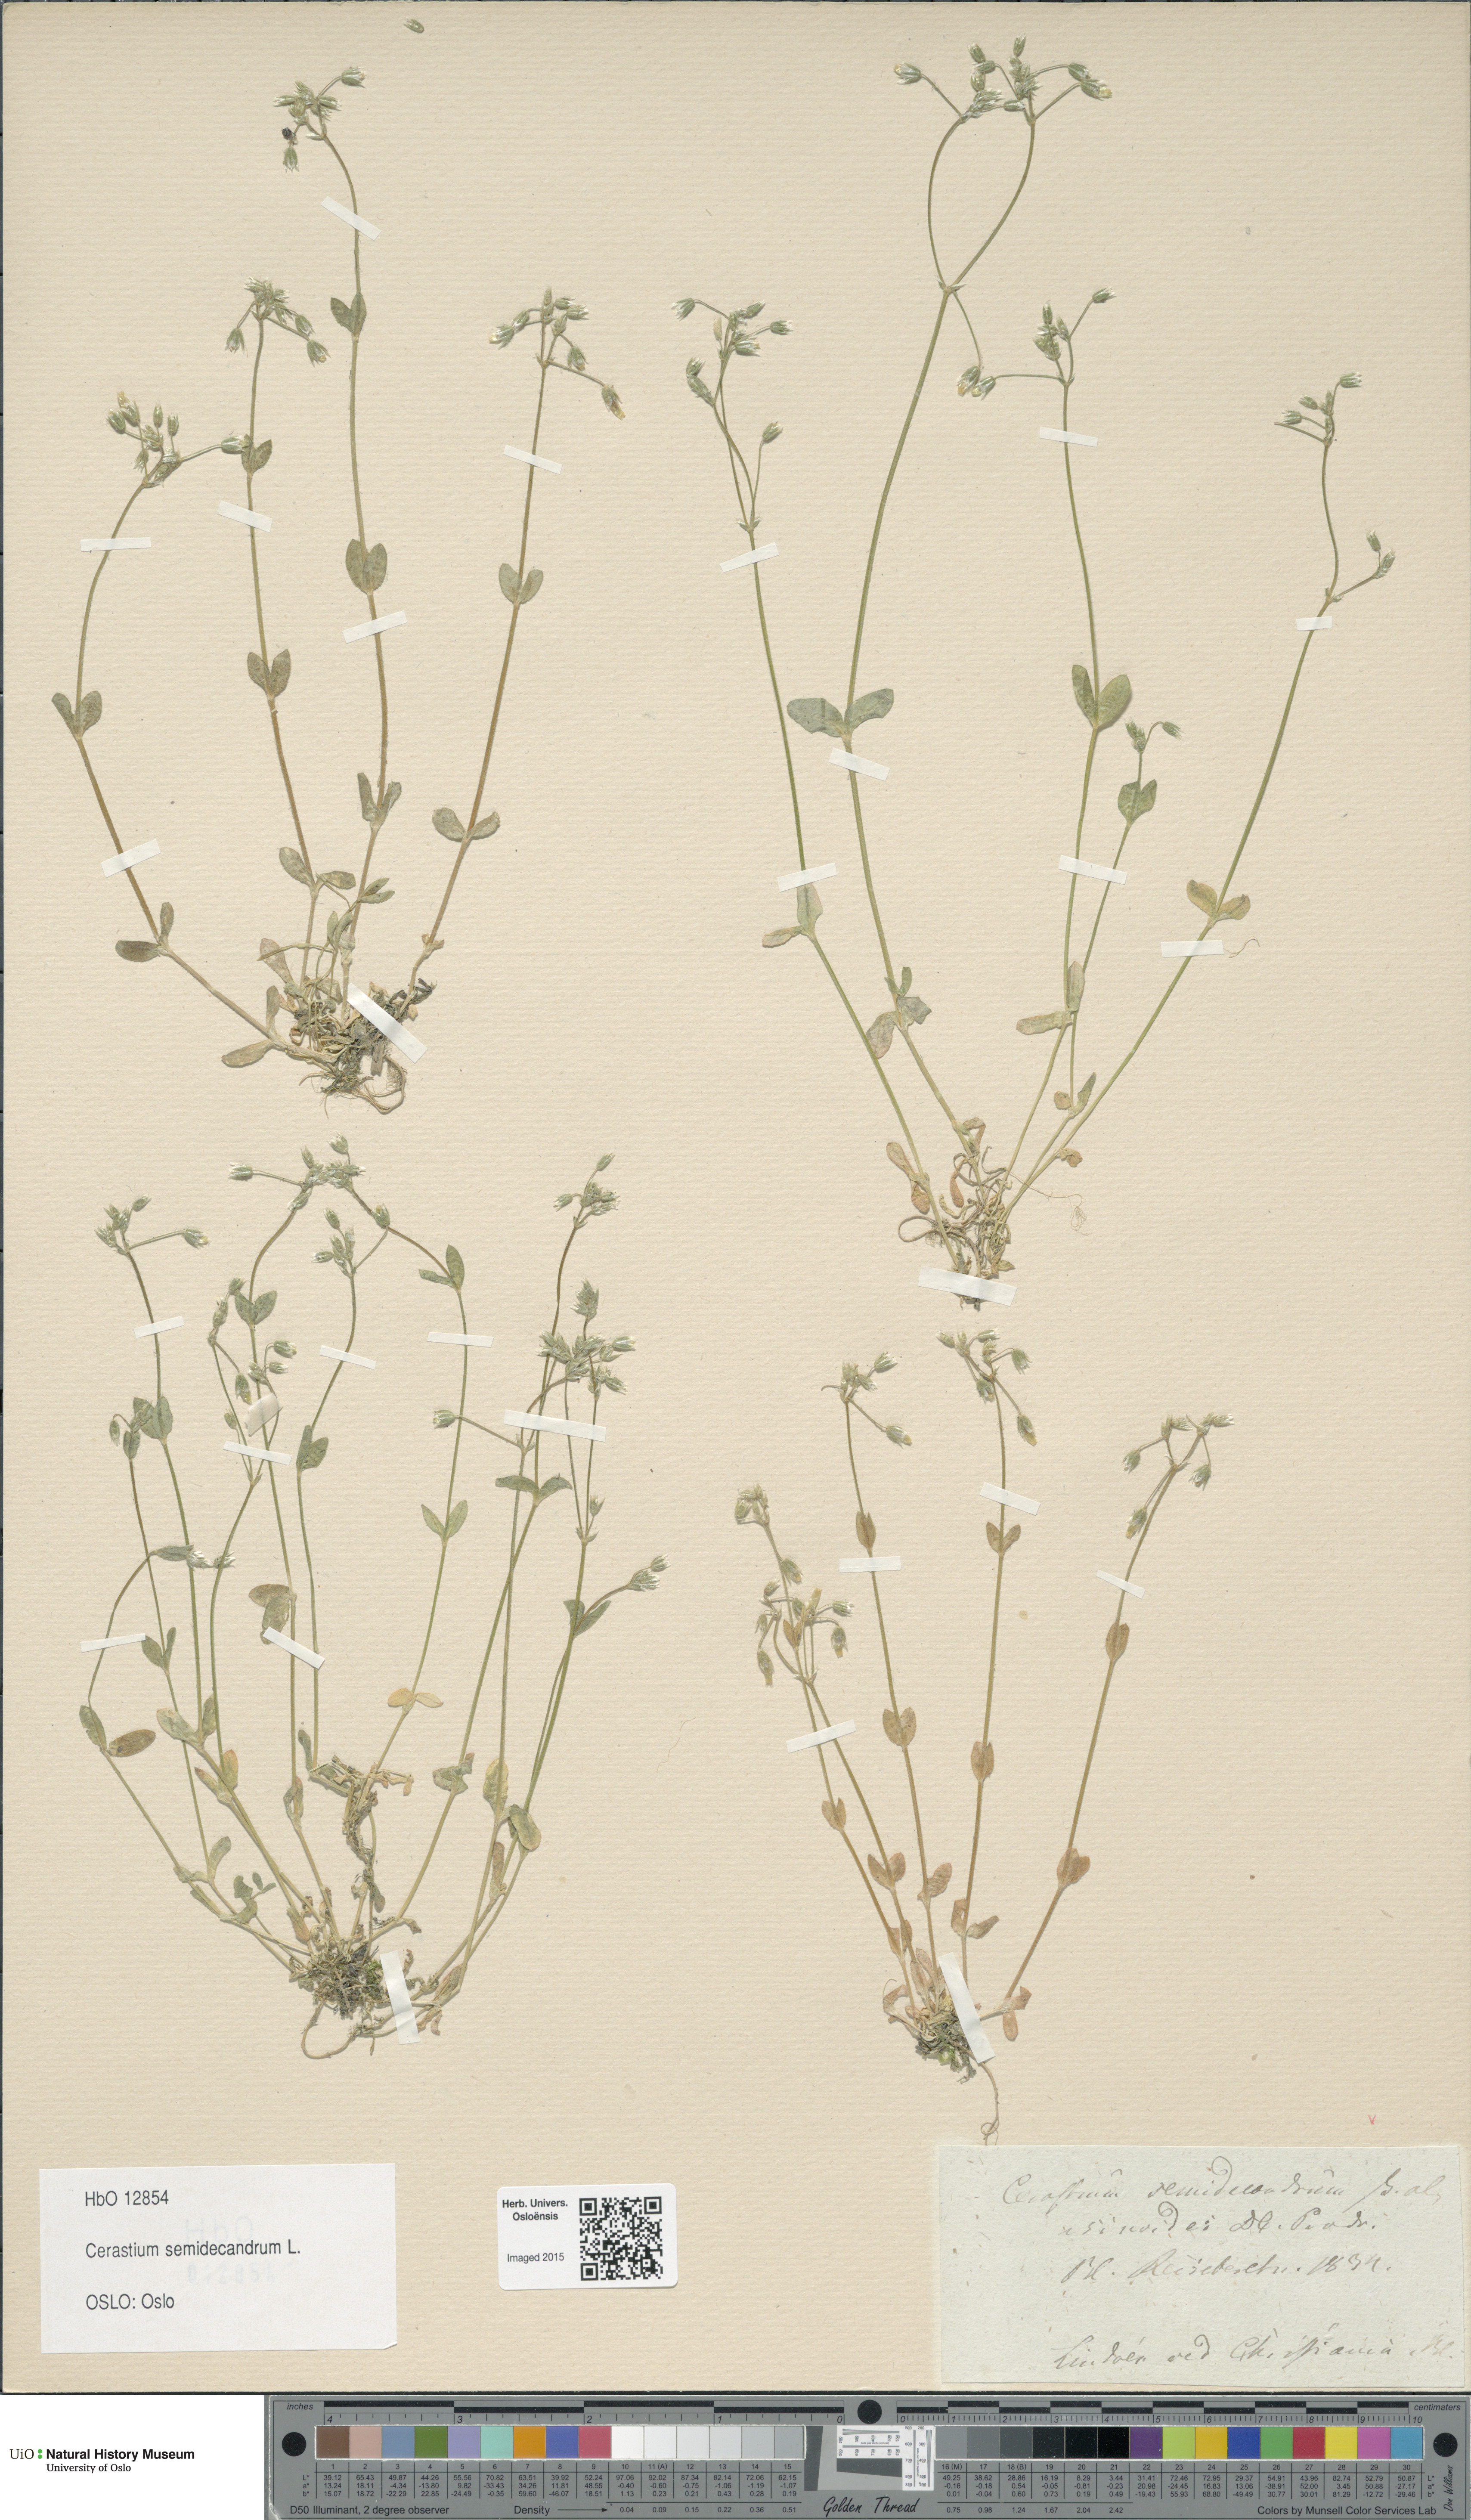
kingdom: Plantae
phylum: Tracheophyta
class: Magnoliopsida
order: Caryophyllales
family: Caryophyllaceae
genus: Cerastium
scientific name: Cerastium semidecandrum
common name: Little mouse-ear
